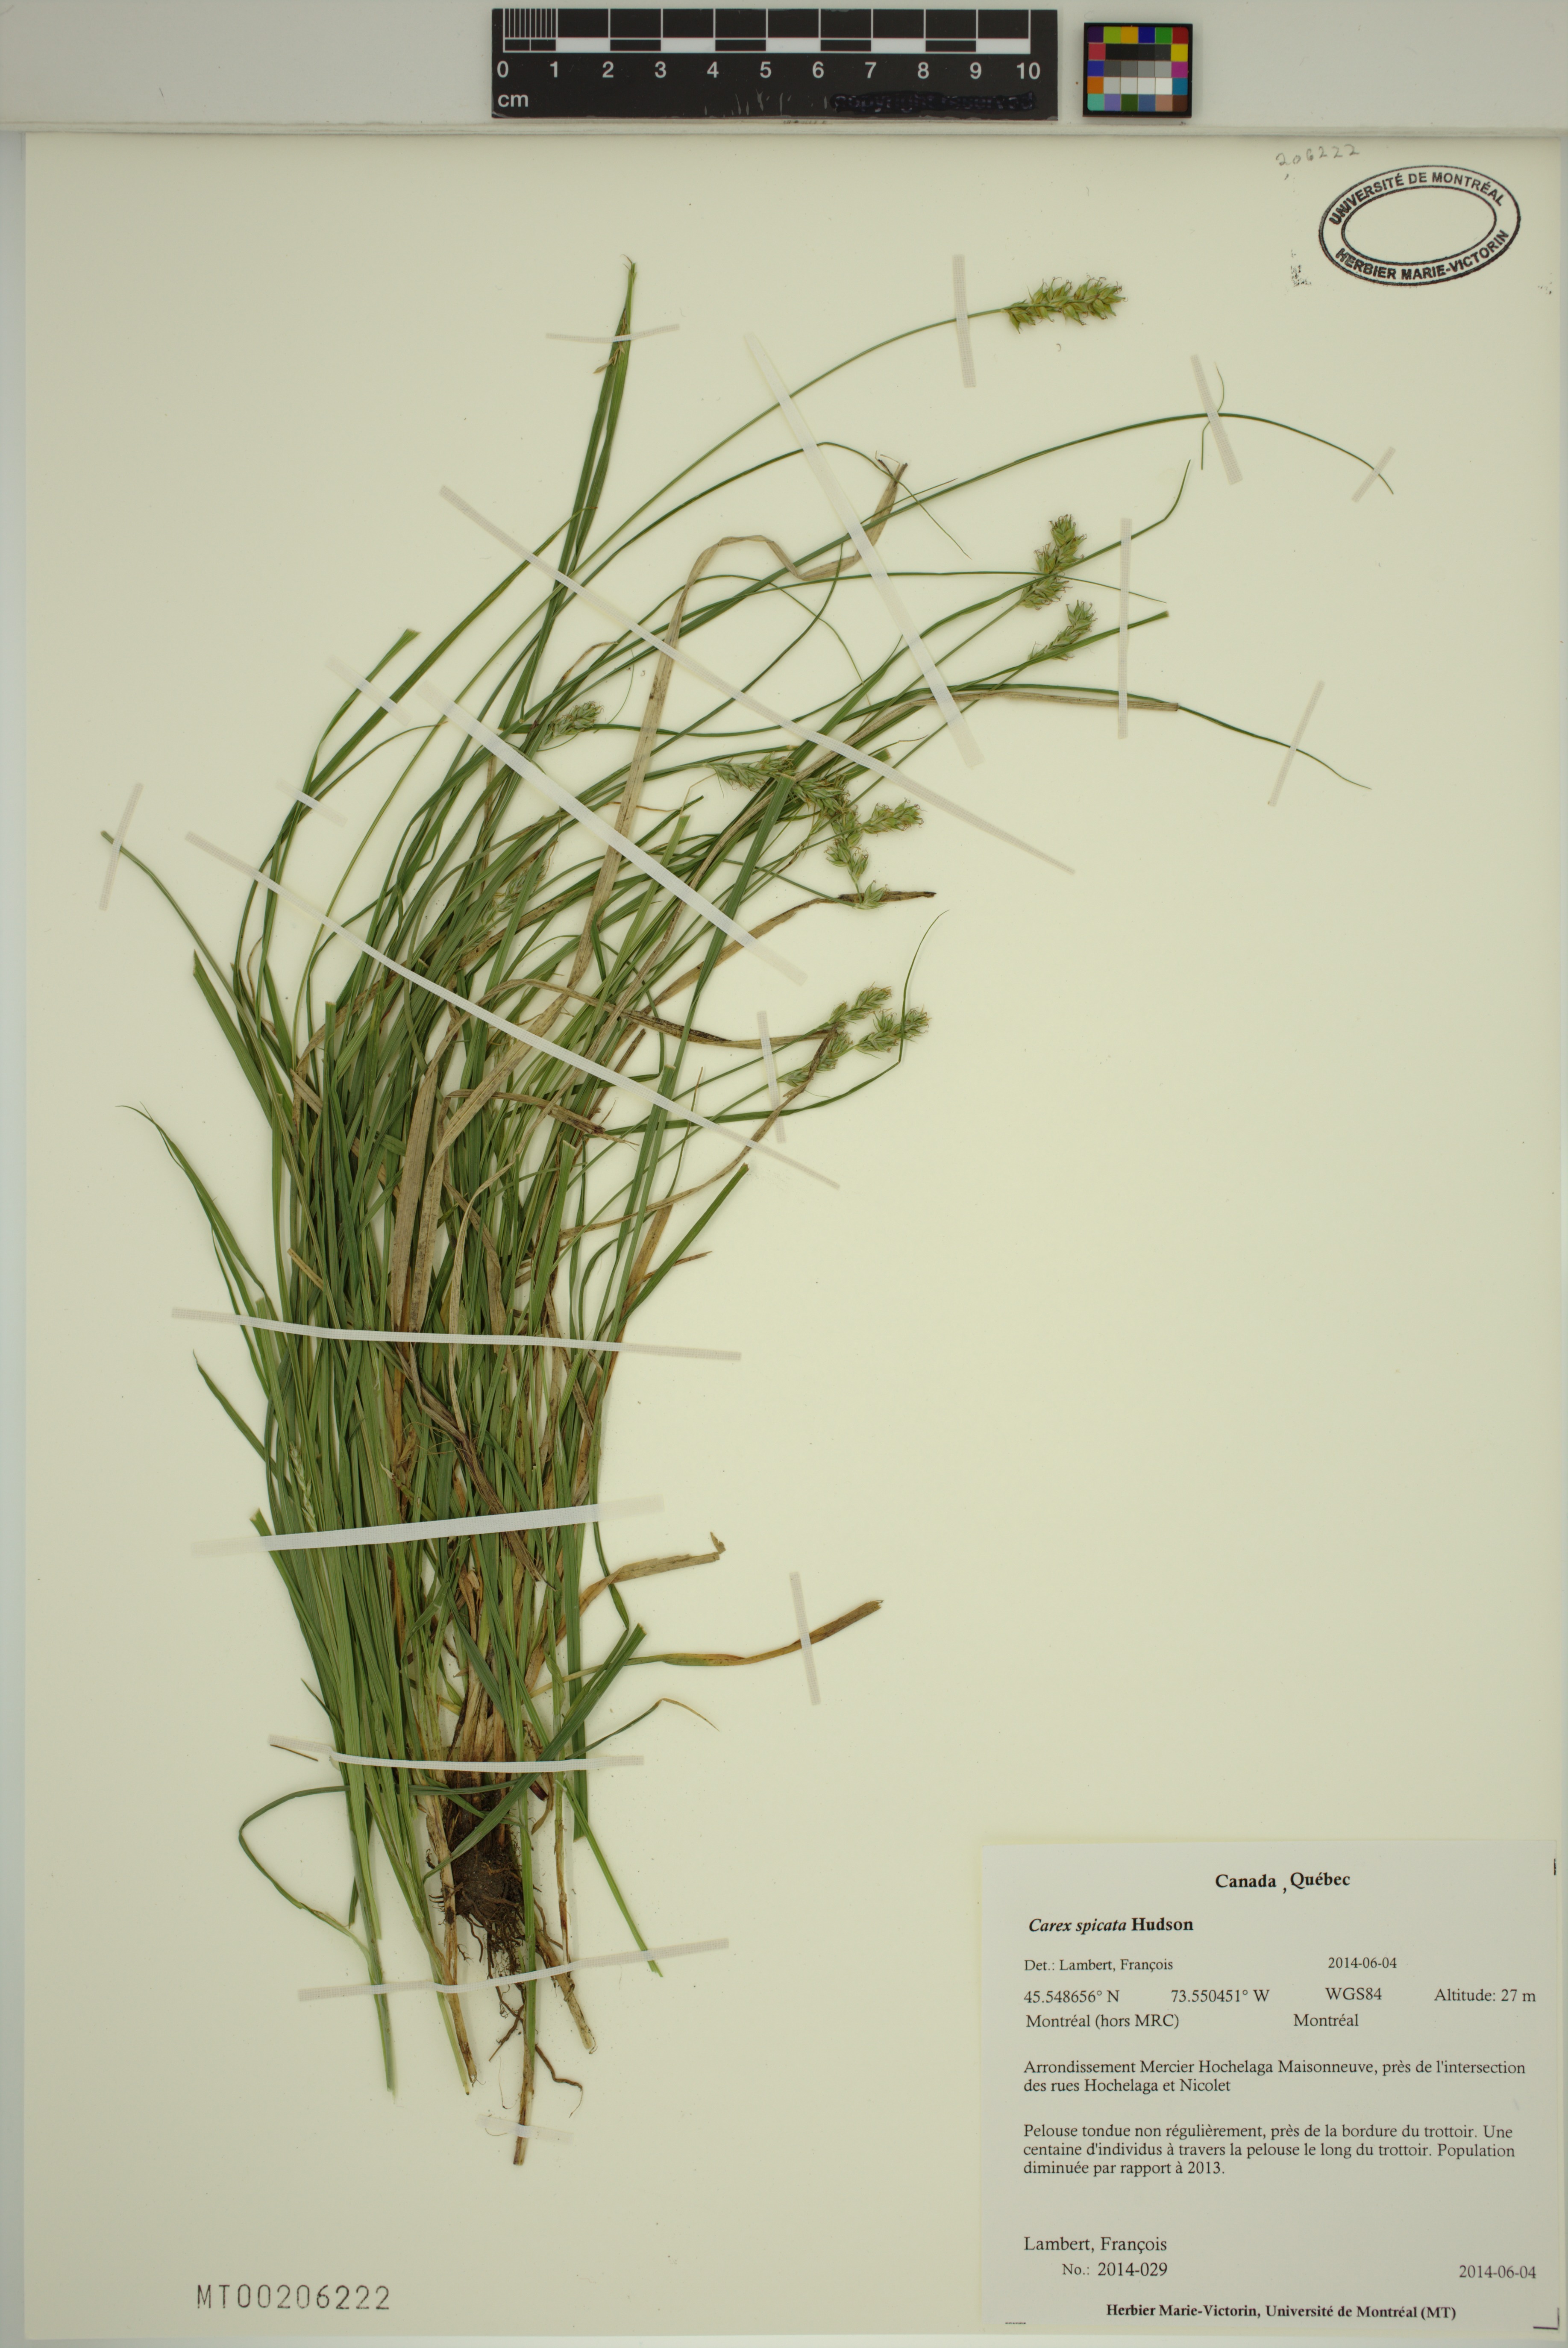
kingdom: Plantae
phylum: Tracheophyta
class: Liliopsida
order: Poales
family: Cyperaceae
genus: Carex
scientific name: Carex spicata
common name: Spiked sedge
